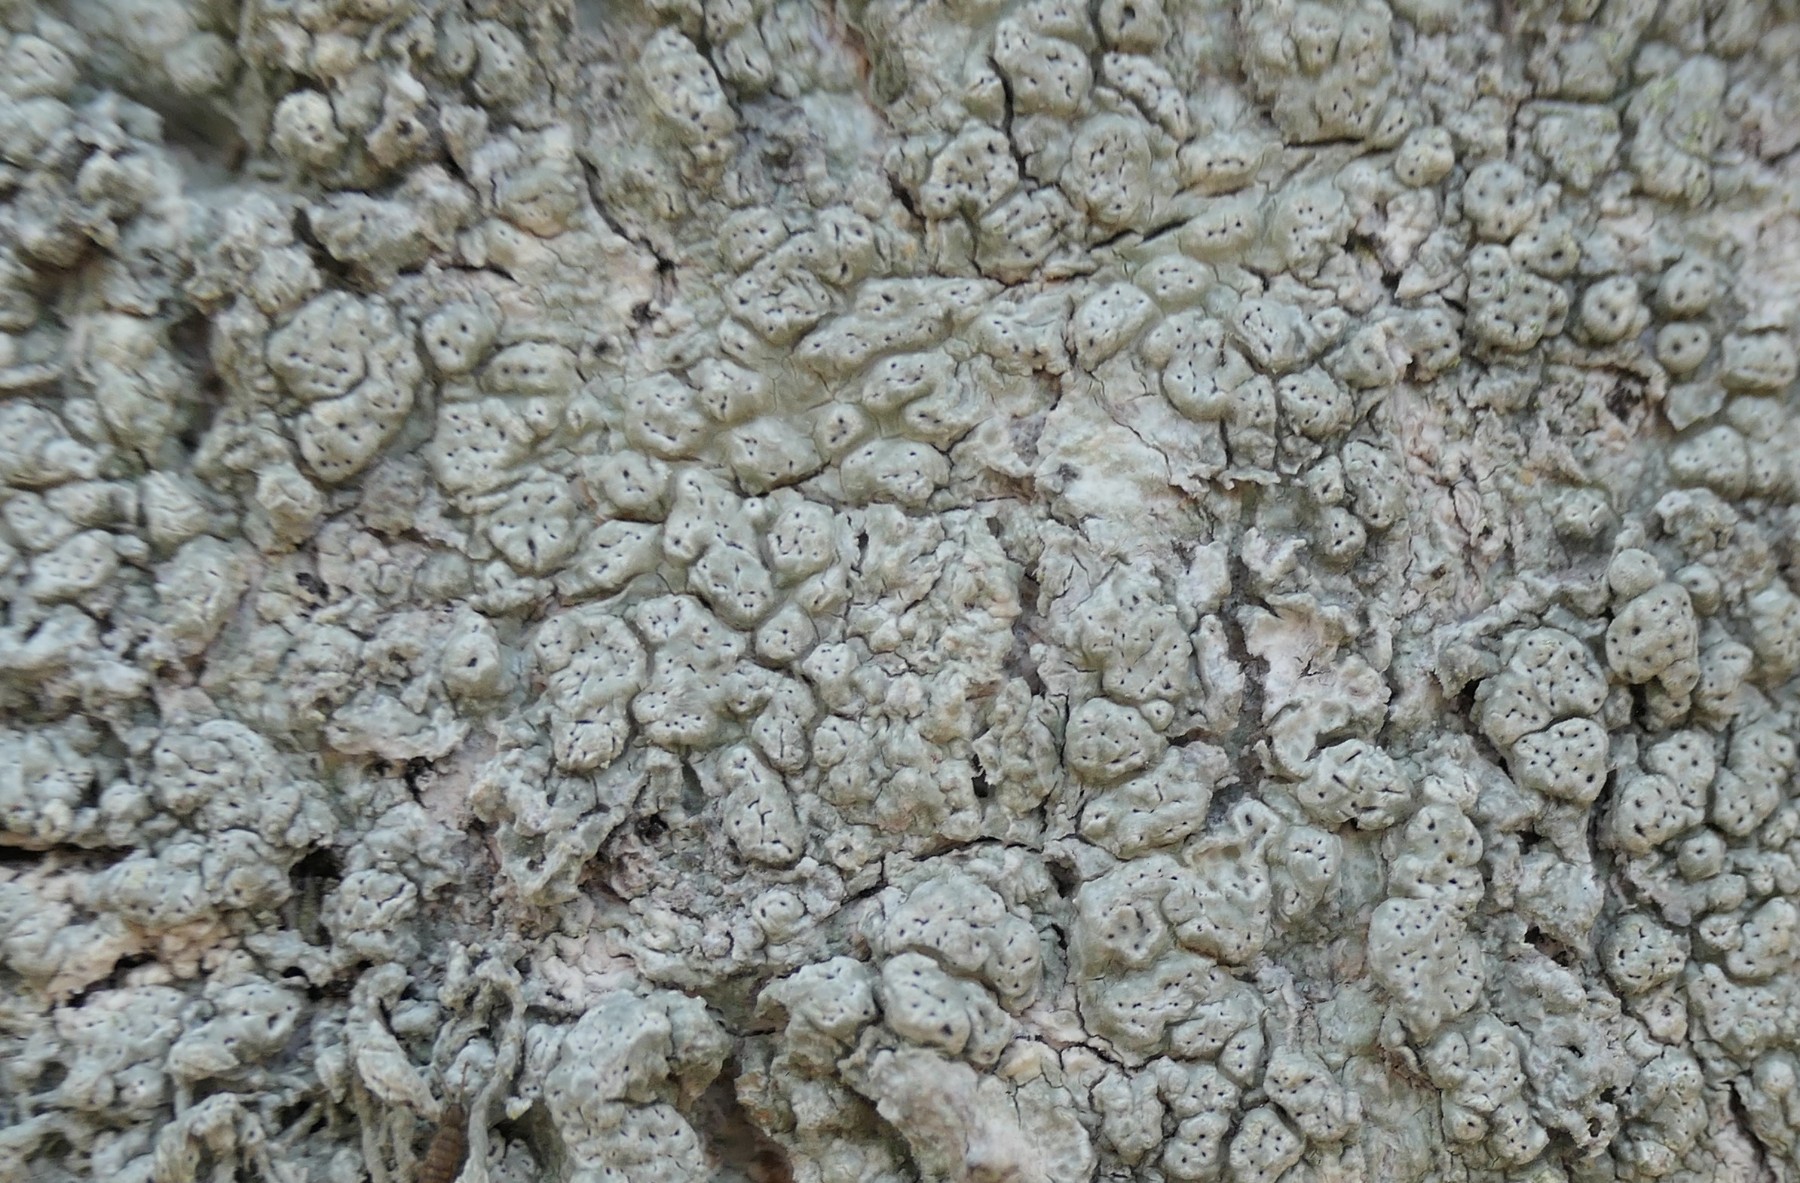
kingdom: Fungi
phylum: Ascomycota
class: Lecanoromycetes
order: Pertusariales
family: Pertusariaceae
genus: Pertusaria
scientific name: Pertusaria pertusa
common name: almindelig prikvortelav
